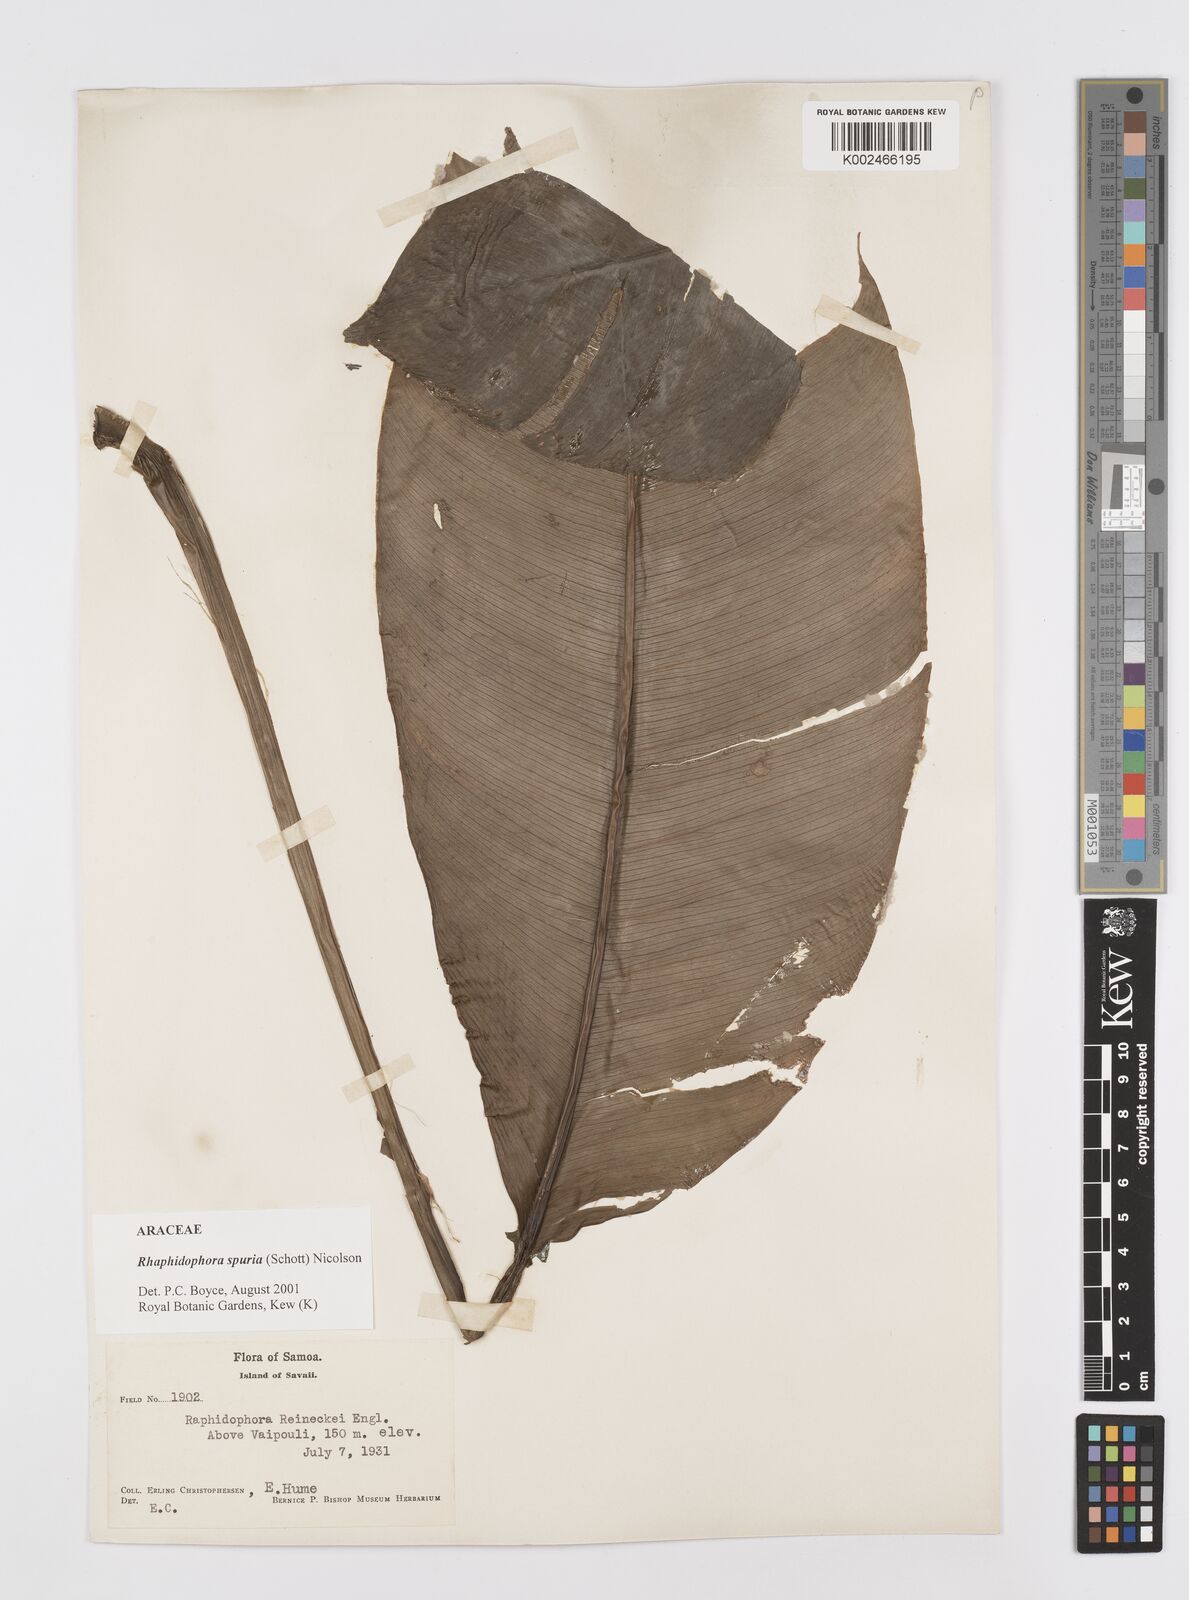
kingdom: Plantae
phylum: Tracheophyta
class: Liliopsida
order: Alismatales
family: Araceae
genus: Rhaphidophora
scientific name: Rhaphidophora spuria
